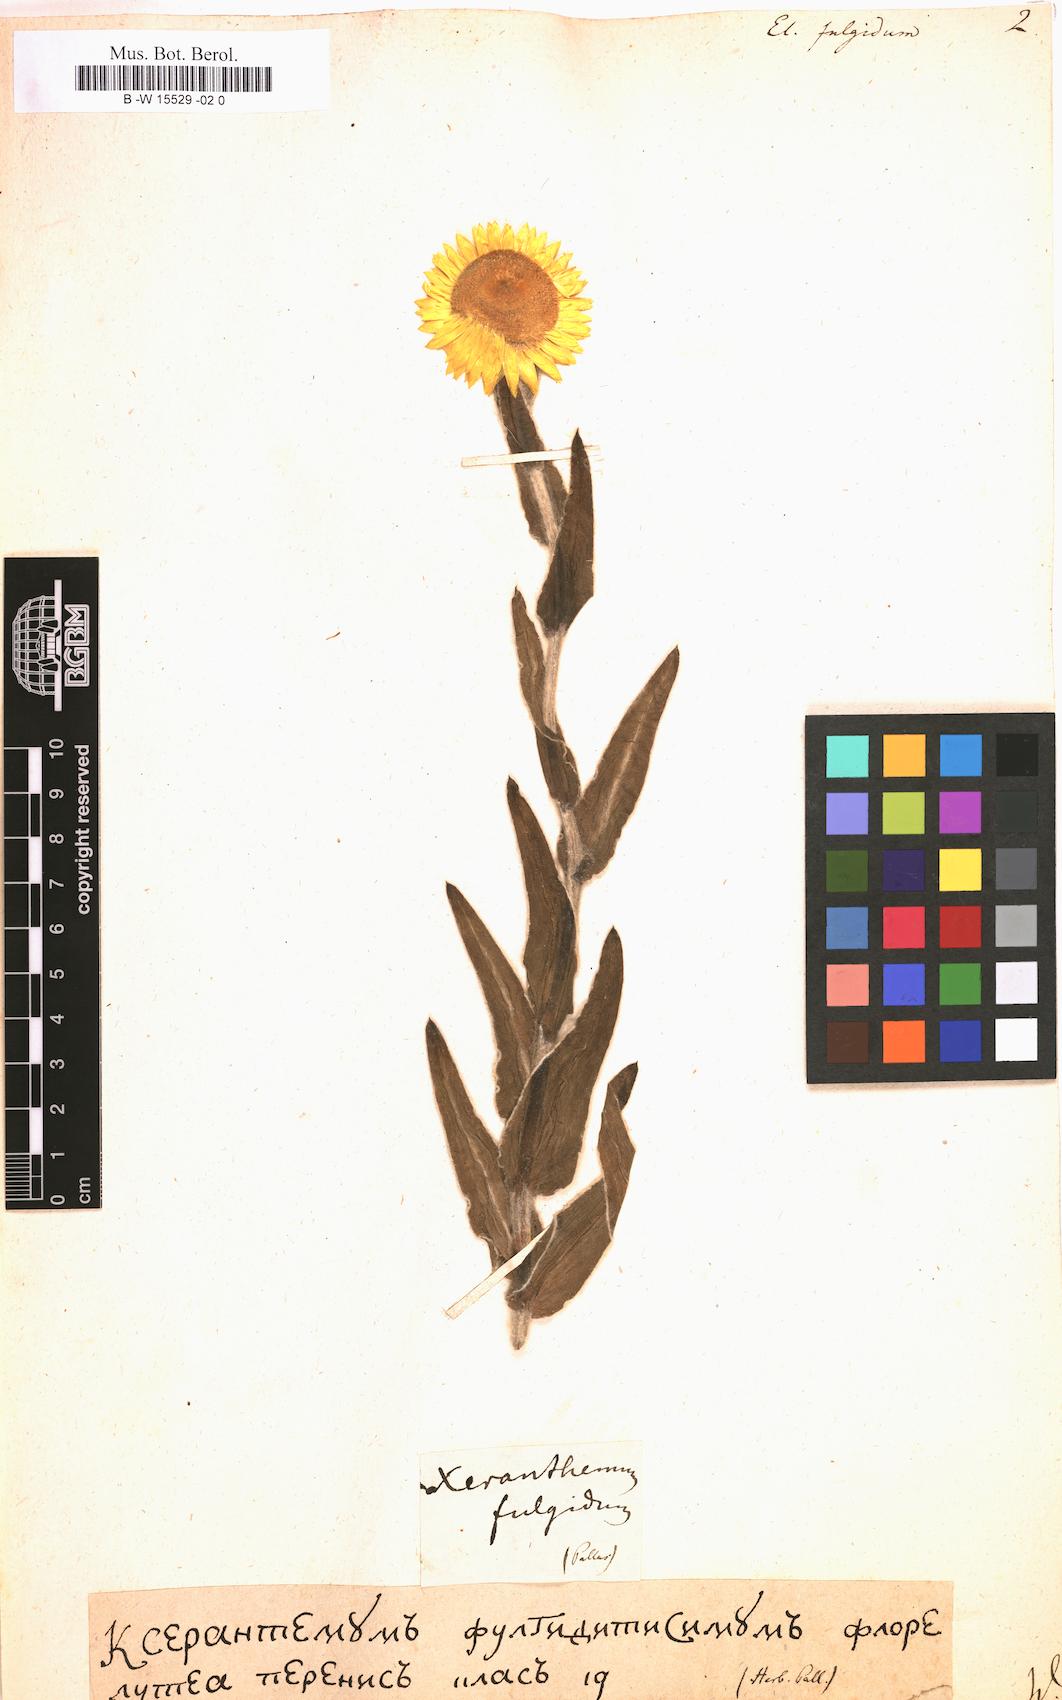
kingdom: Plantae
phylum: Tracheophyta
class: Magnoliopsida
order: Asterales
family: Asteraceae
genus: Helichrysum
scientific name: Helichrysum
